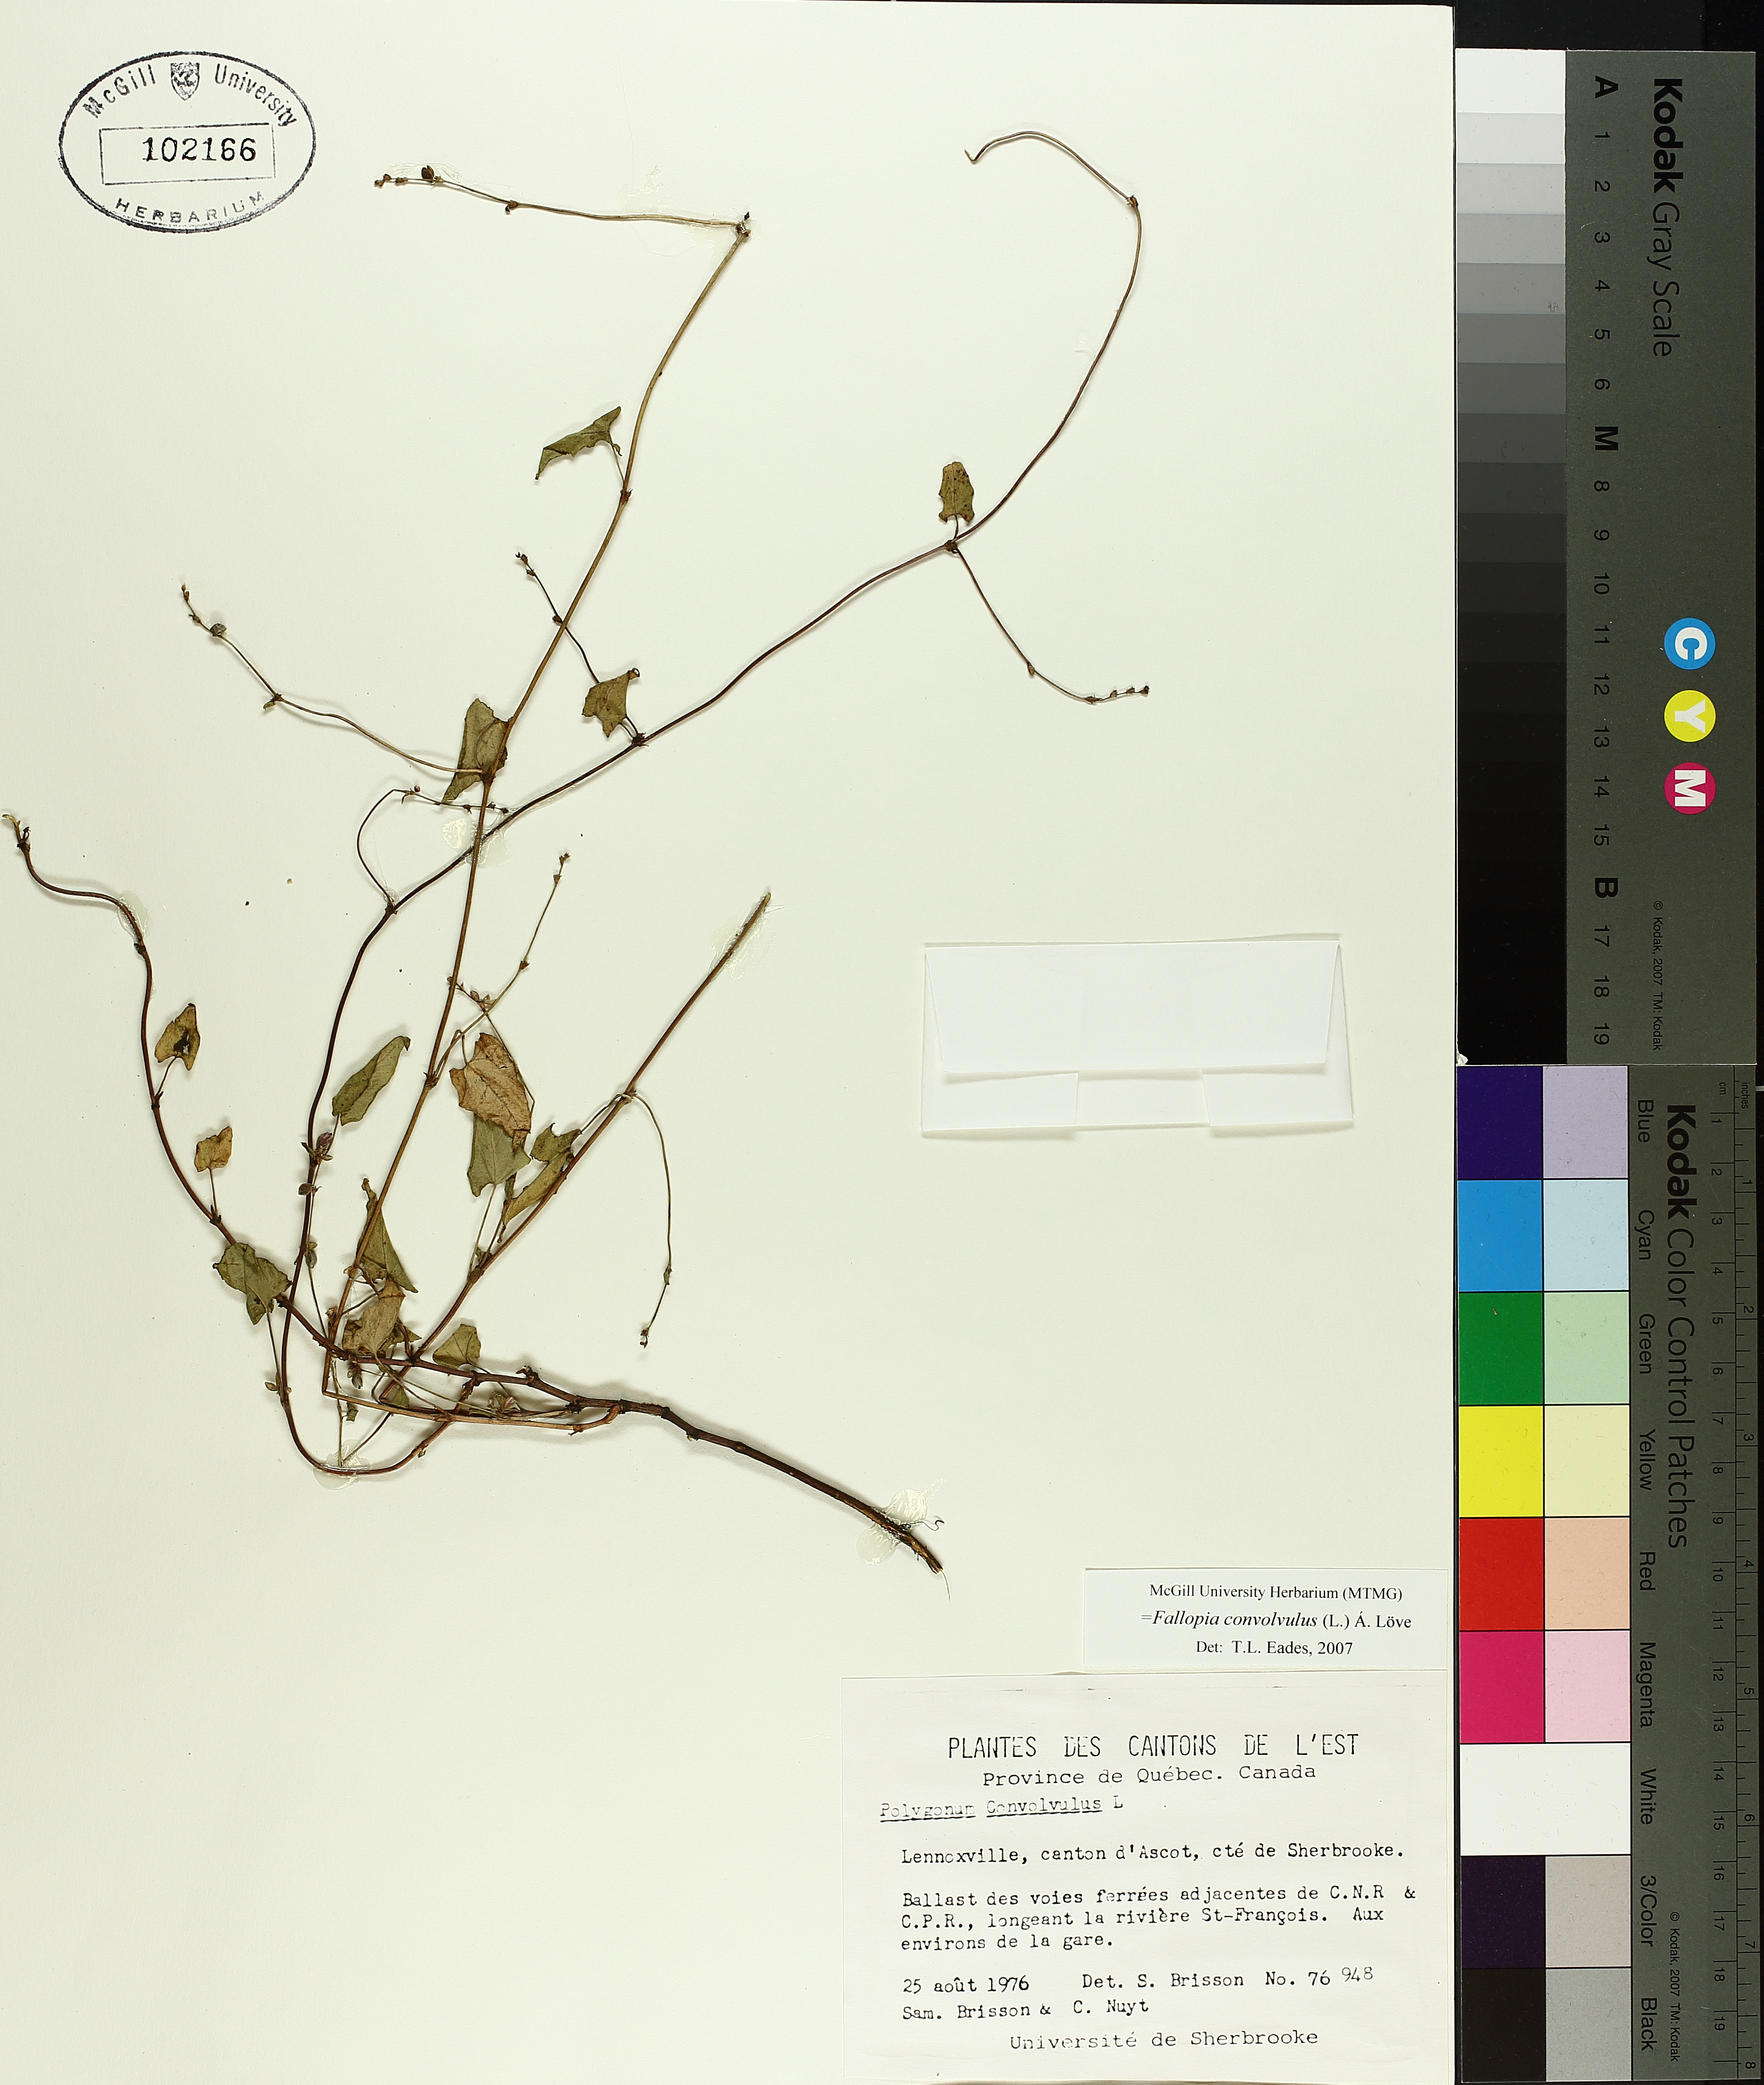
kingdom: Plantae
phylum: Tracheophyta
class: Magnoliopsida
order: Caryophyllales
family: Polygonaceae
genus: Fallopia
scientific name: Fallopia convolvulus
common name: Black bindweed
